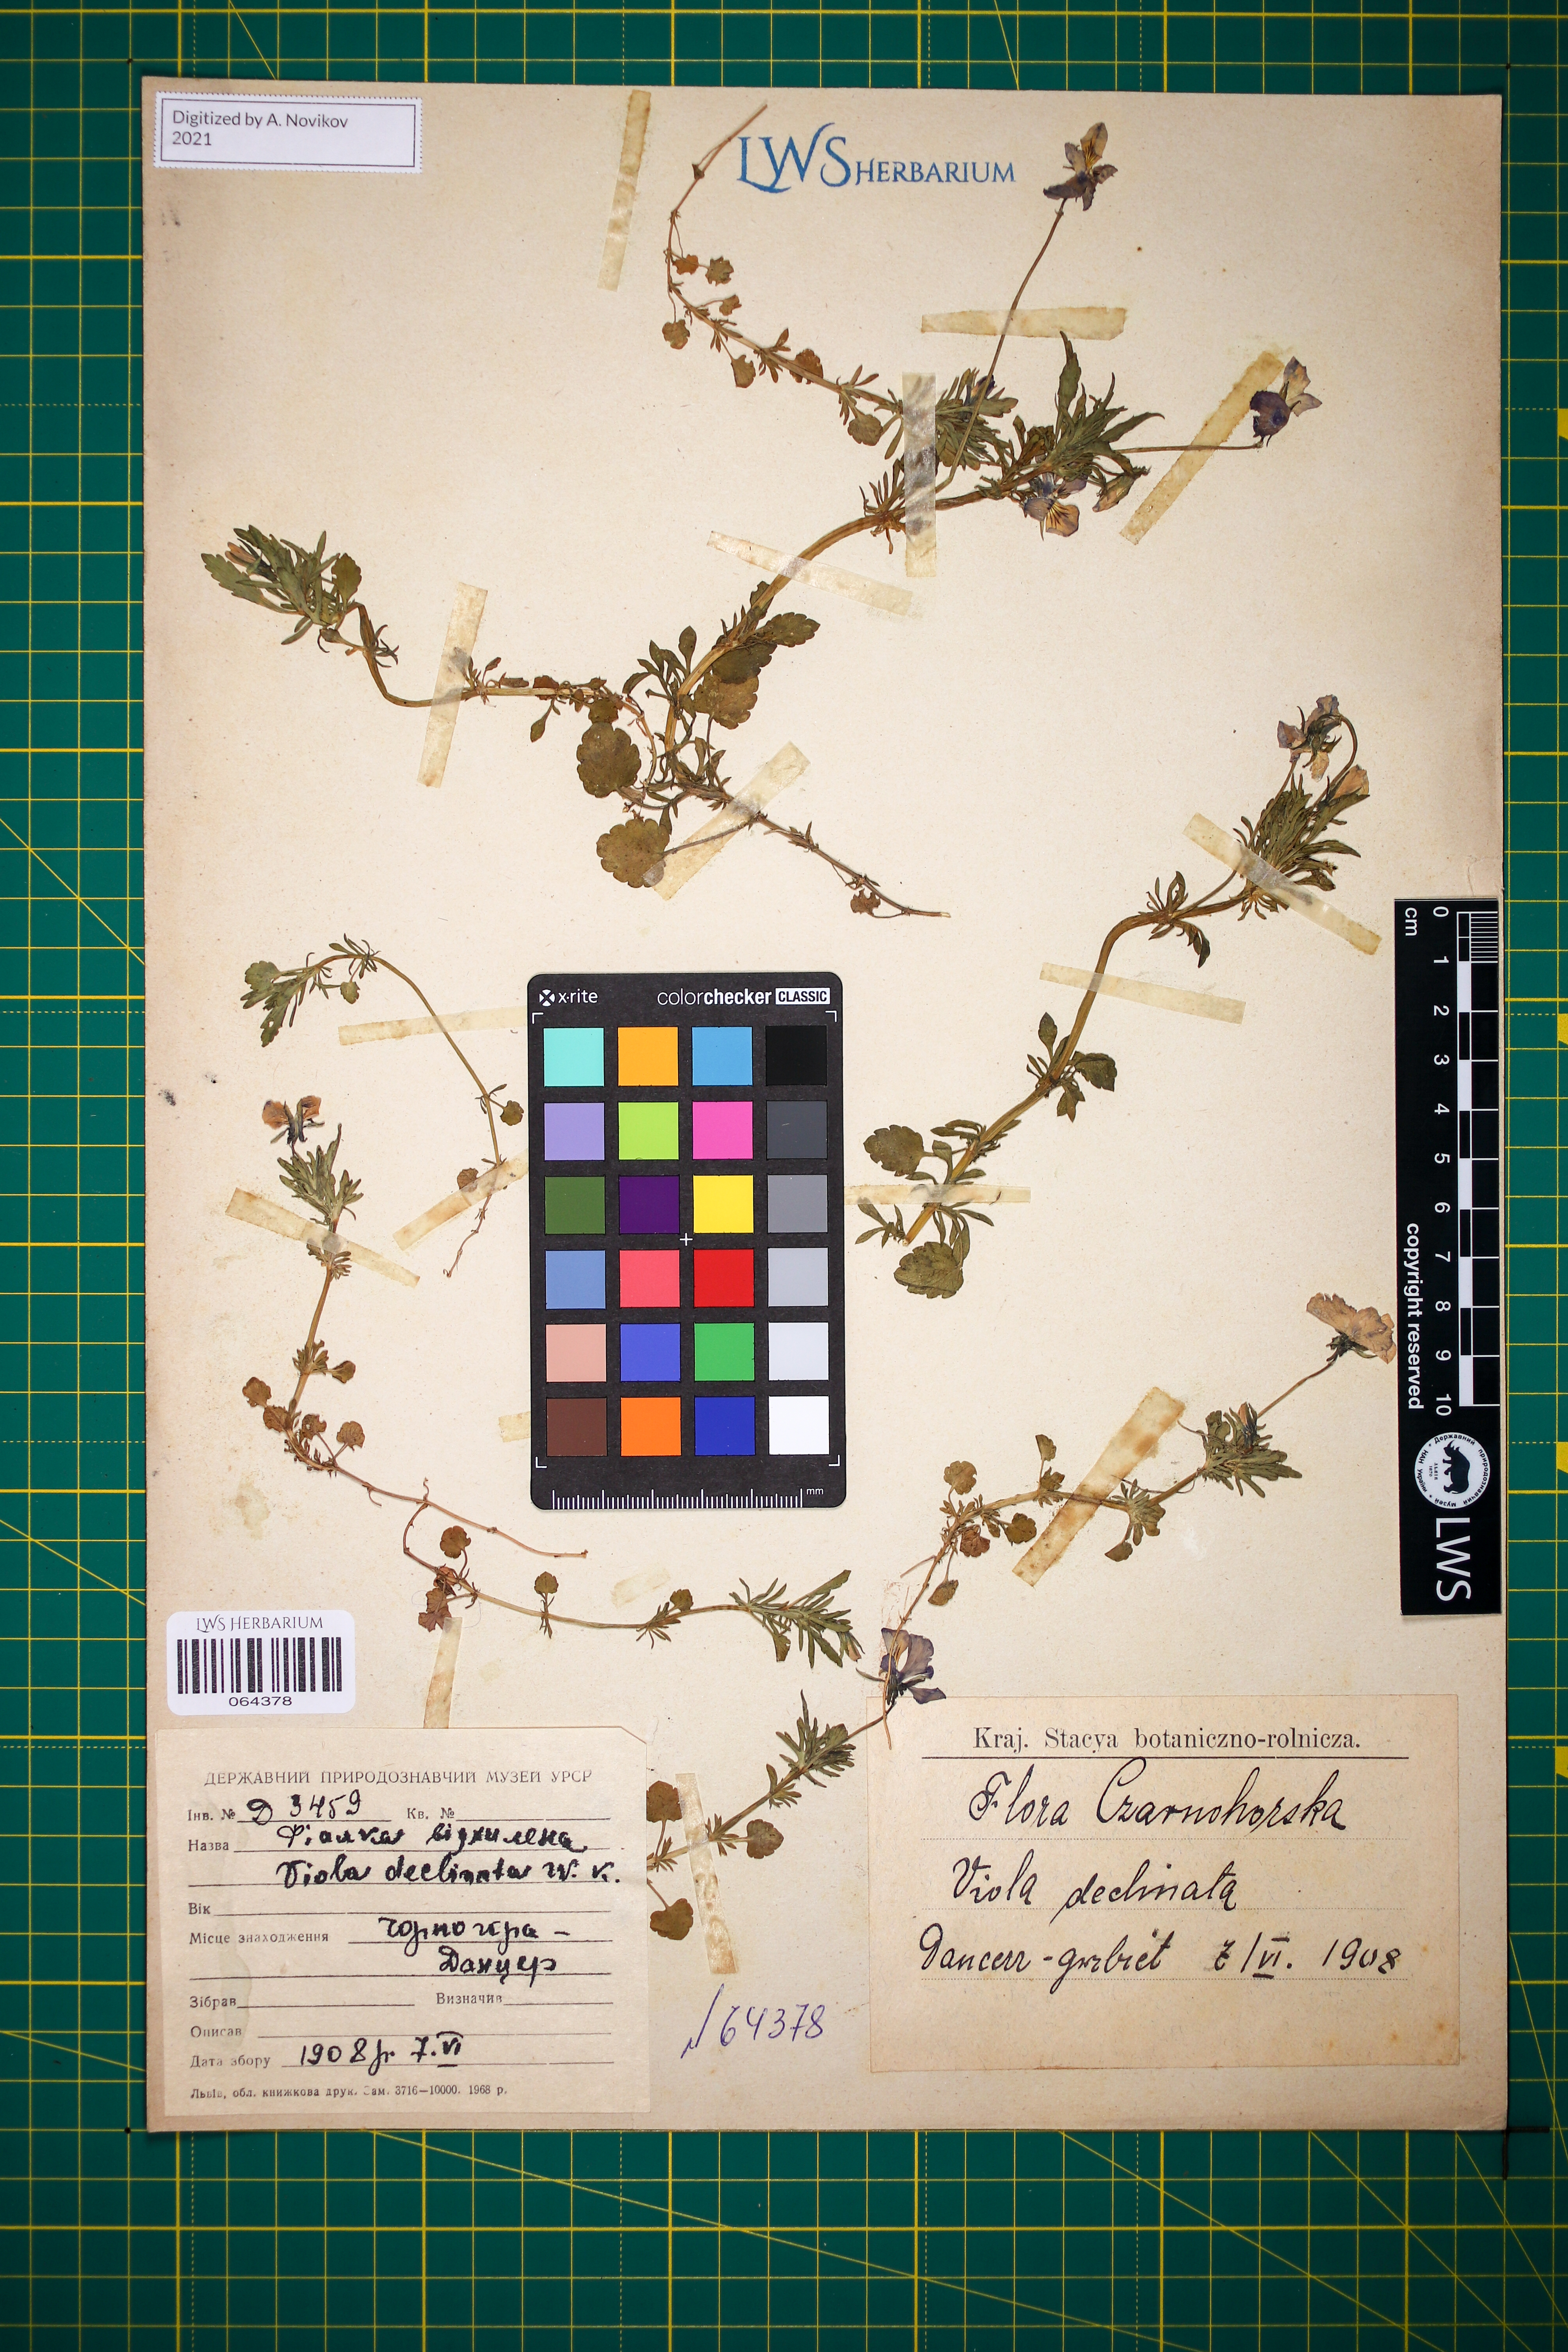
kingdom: Plantae
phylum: Tracheophyta
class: Magnoliopsida
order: Malpighiales
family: Violaceae
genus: Viola
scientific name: Viola declinata
